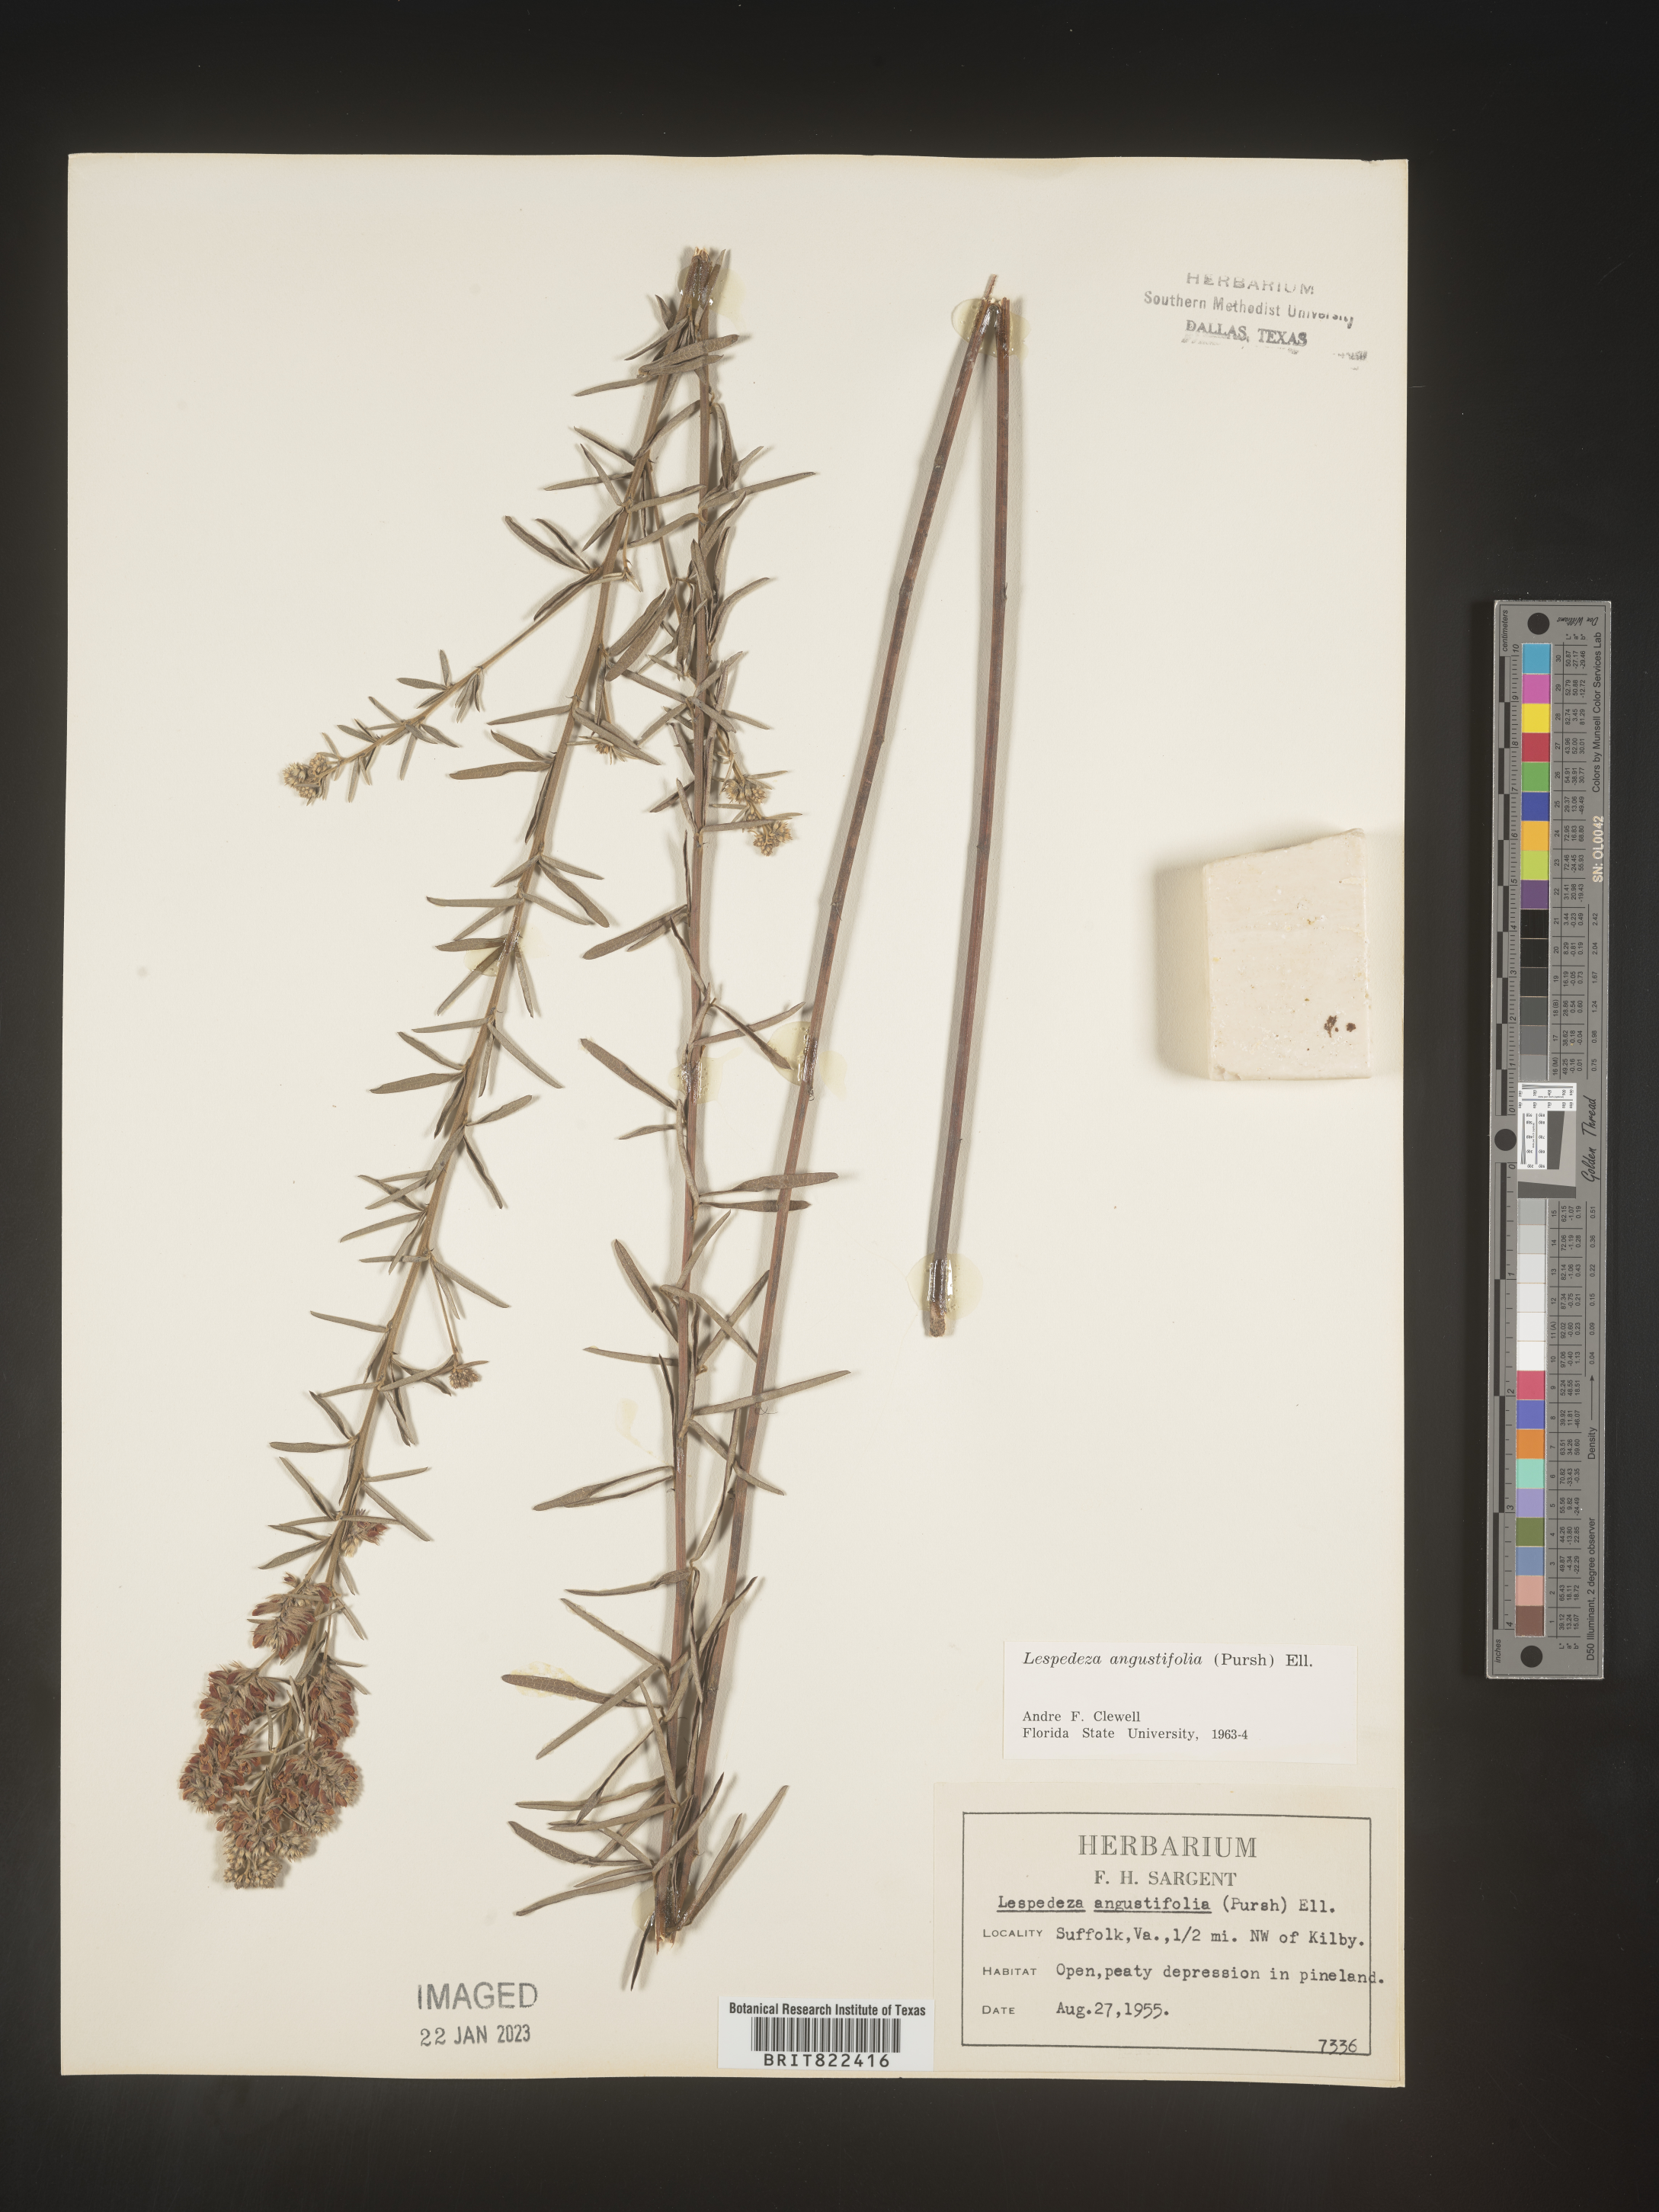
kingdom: Plantae
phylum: Tracheophyta
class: Magnoliopsida
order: Fabales
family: Fabaceae
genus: Lespedeza
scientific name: Lespedeza
